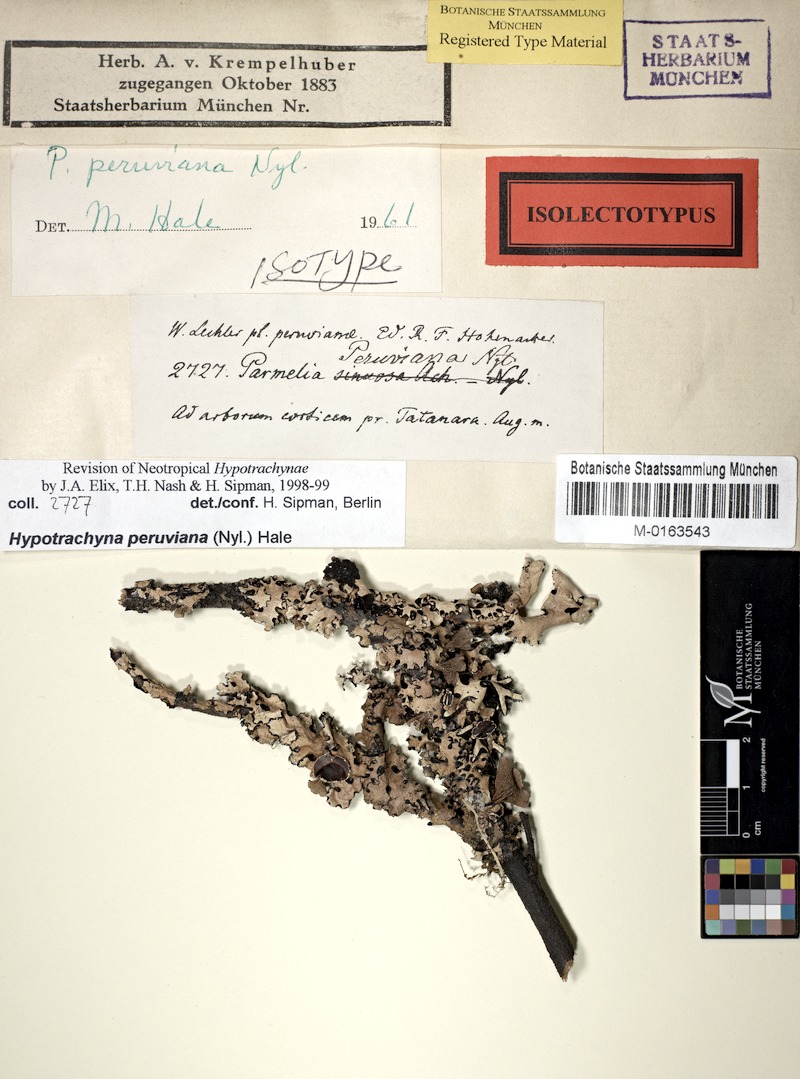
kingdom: Fungi
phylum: Ascomycota
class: Lecanoromycetes
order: Lecanorales
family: Parmeliaceae
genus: Hypotrachyna
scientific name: Hypotrachyna
